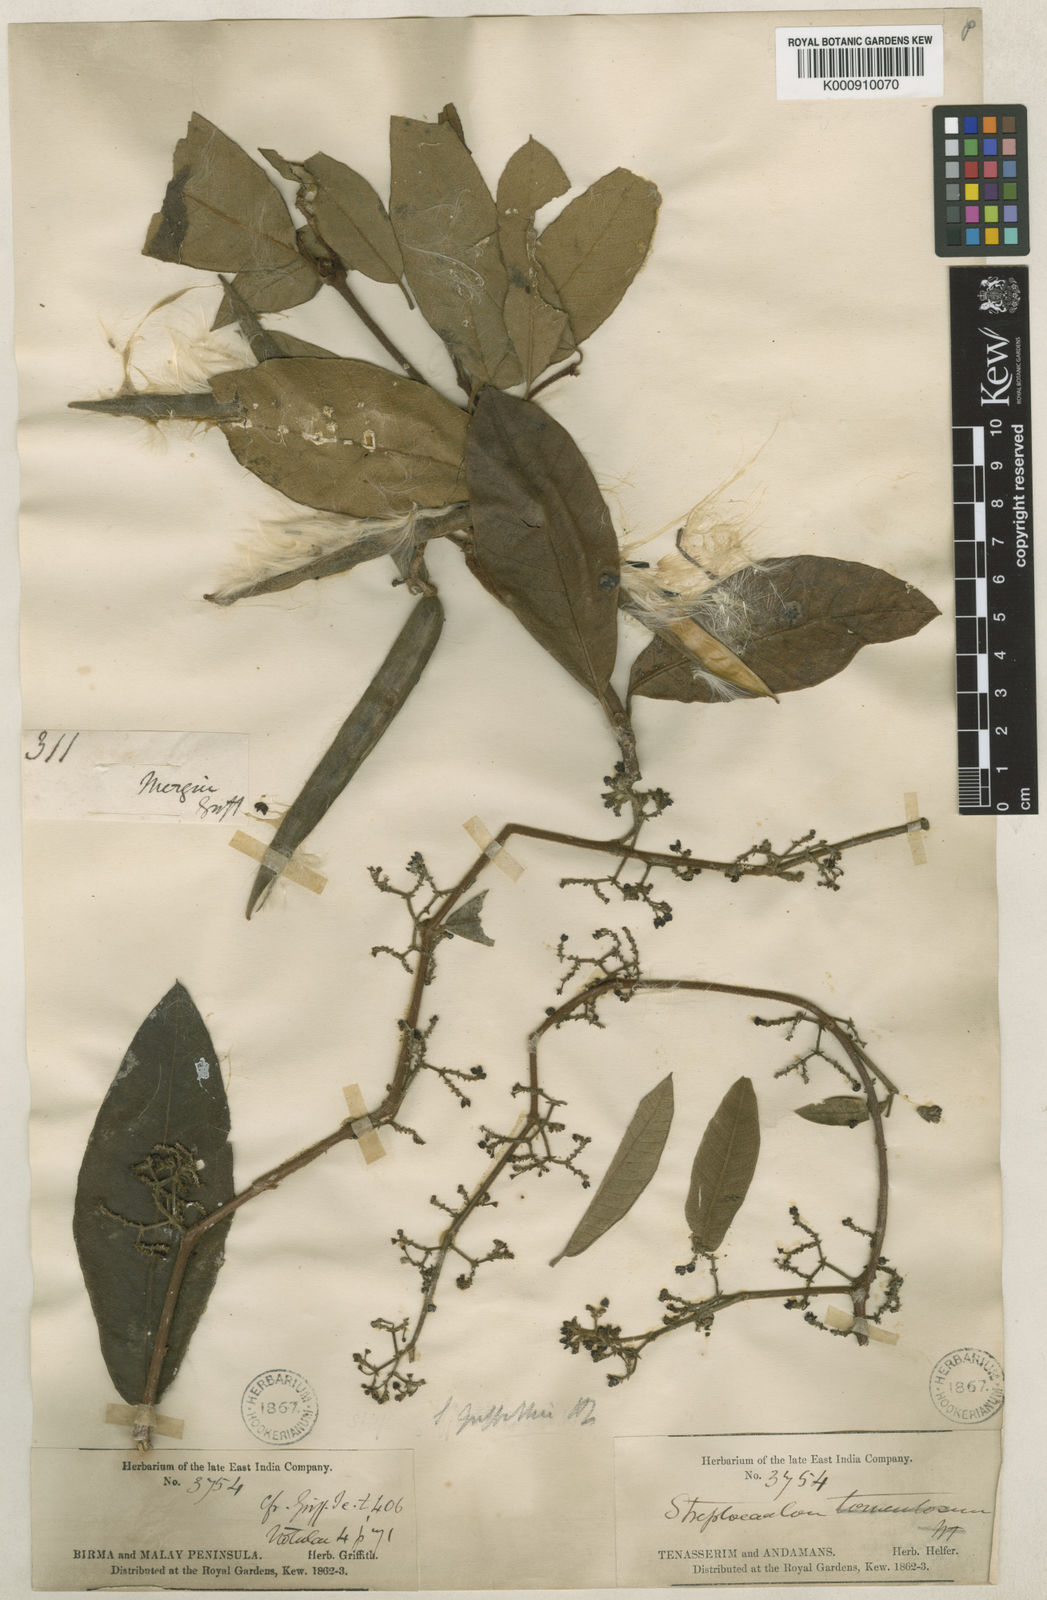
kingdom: Plantae
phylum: Tracheophyta
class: Magnoliopsida
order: Gentianales
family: Apocynaceae
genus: Streptocaulon
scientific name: Streptocaulon juventas
